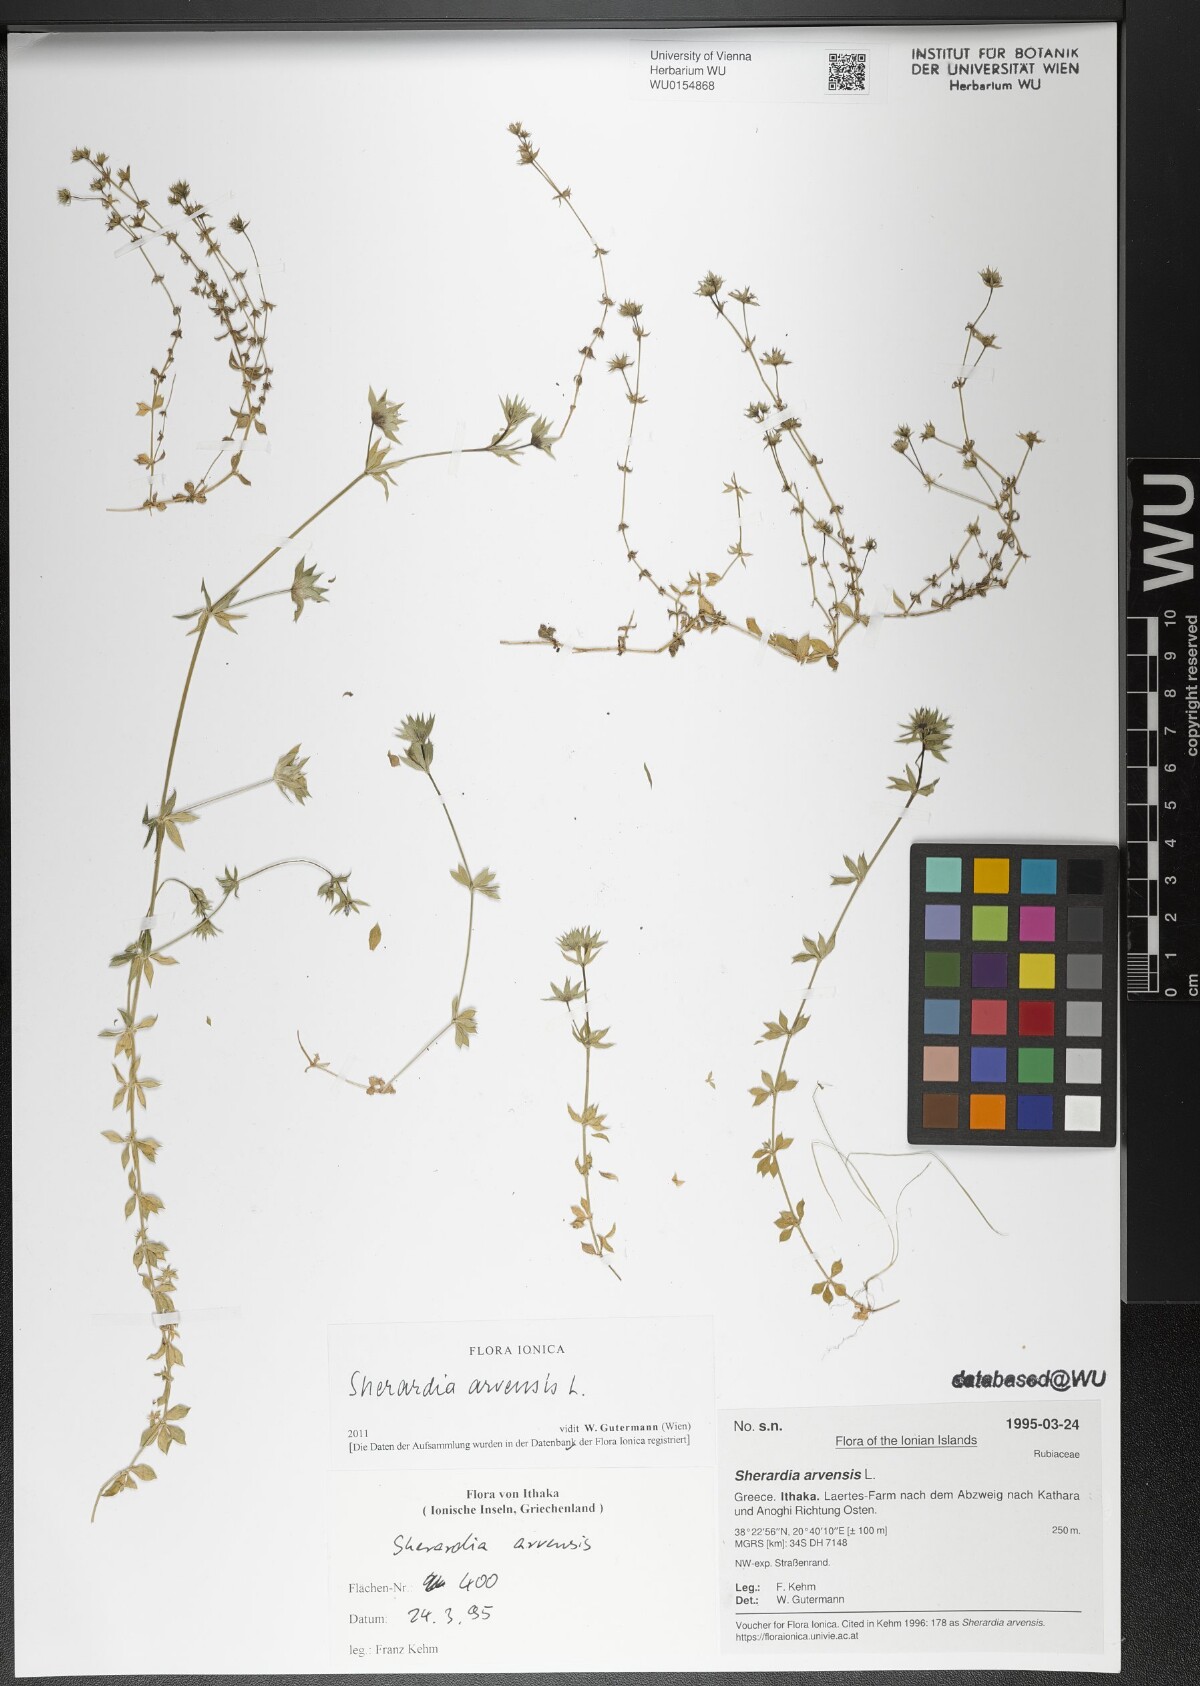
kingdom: Plantae
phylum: Tracheophyta
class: Magnoliopsida
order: Gentianales
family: Rubiaceae
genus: Sherardia
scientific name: Sherardia arvensis
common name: Field madder
